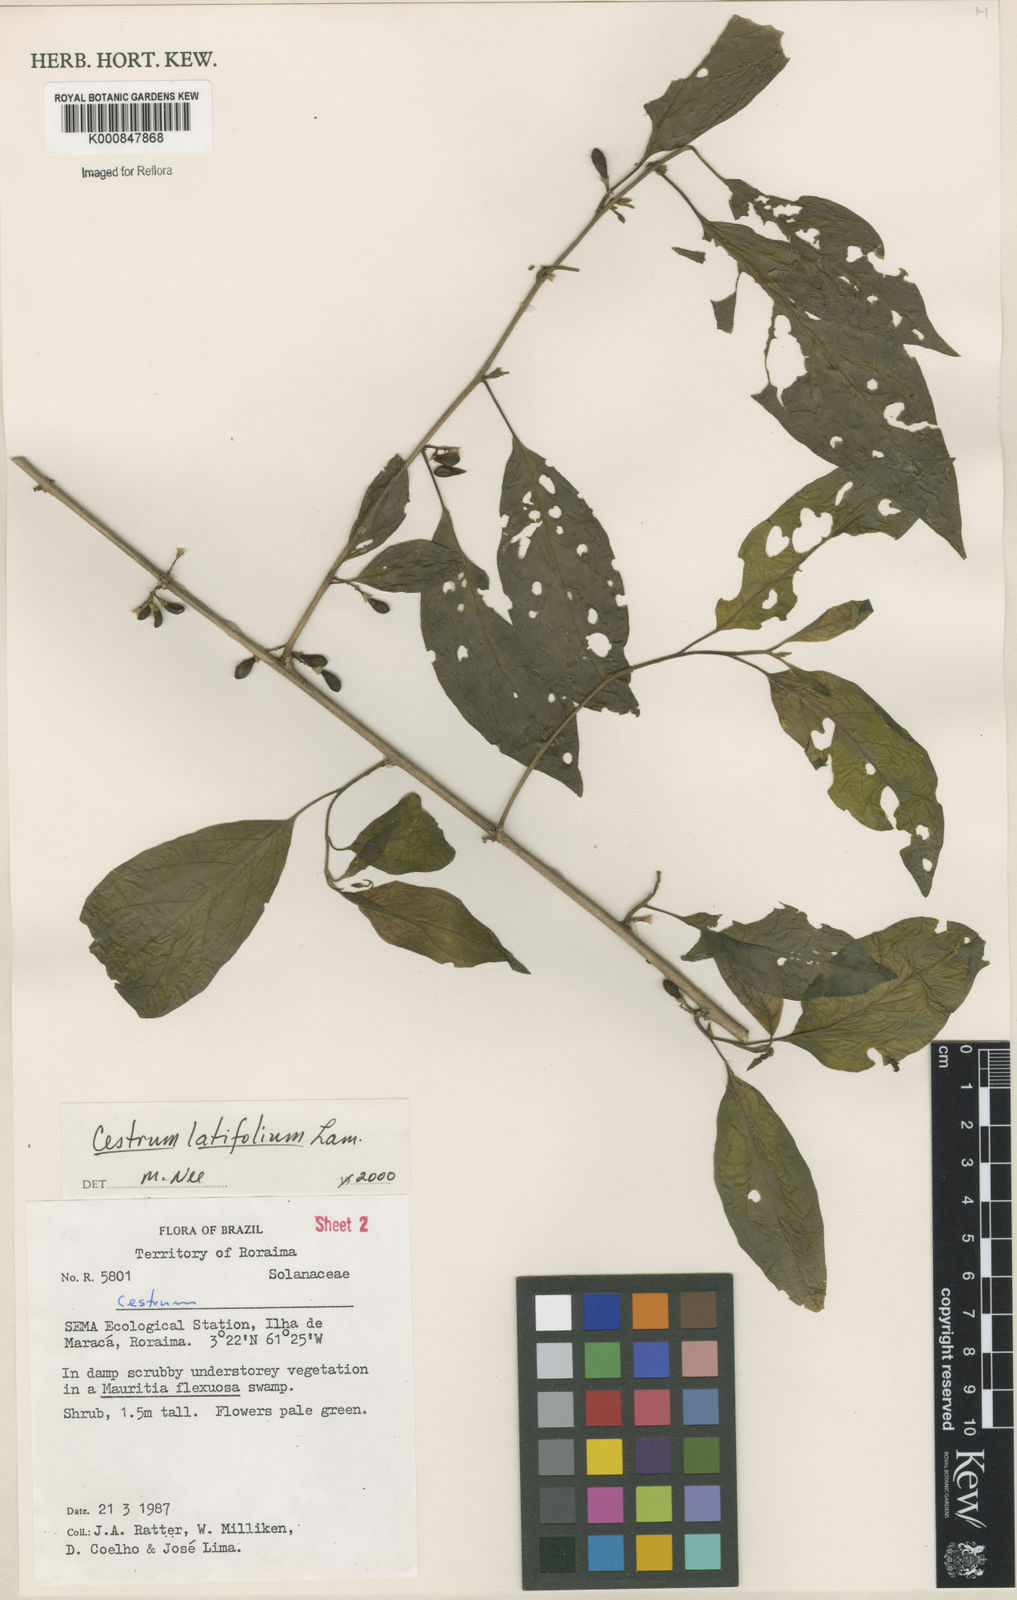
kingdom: Plantae
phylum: Tracheophyta
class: Magnoliopsida
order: Solanales
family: Solanaceae
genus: Cestrum
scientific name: Cestrum latifolium
